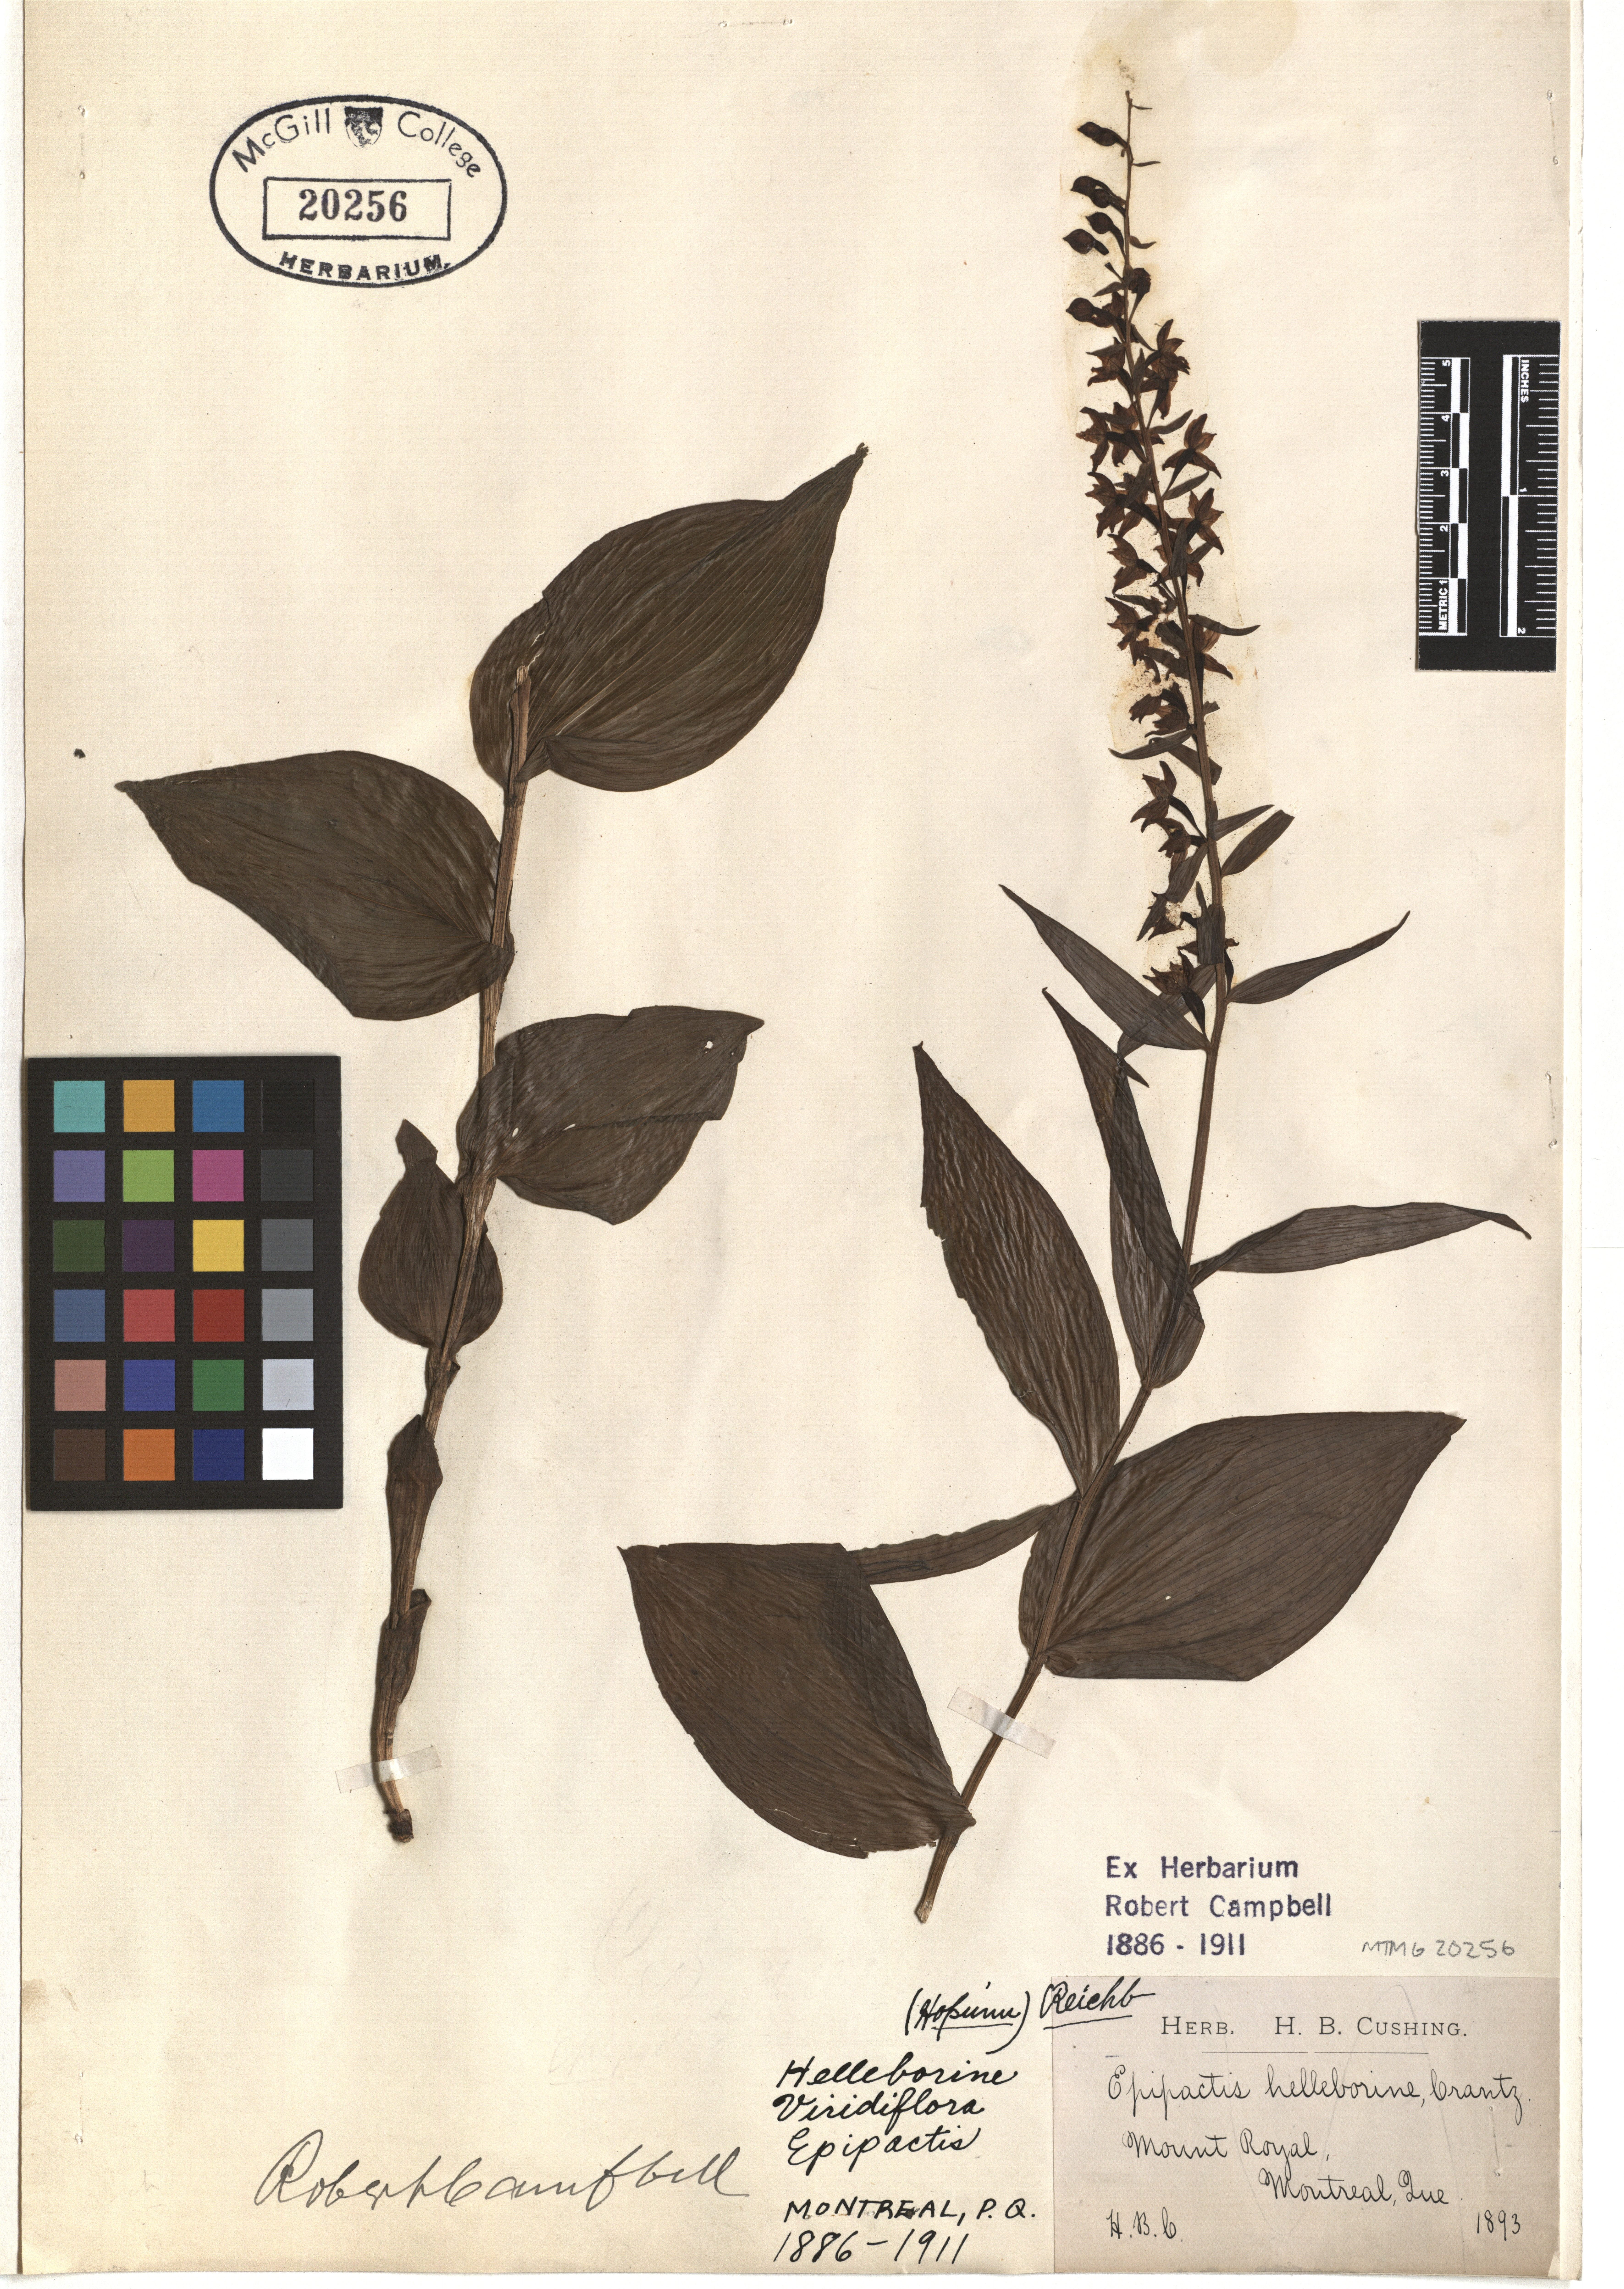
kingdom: Plantae
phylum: Tracheophyta
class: Liliopsida
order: Asparagales
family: Orchidaceae
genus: Epipactis
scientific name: Epipactis helleborine
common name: Broad-leaved helleborine
